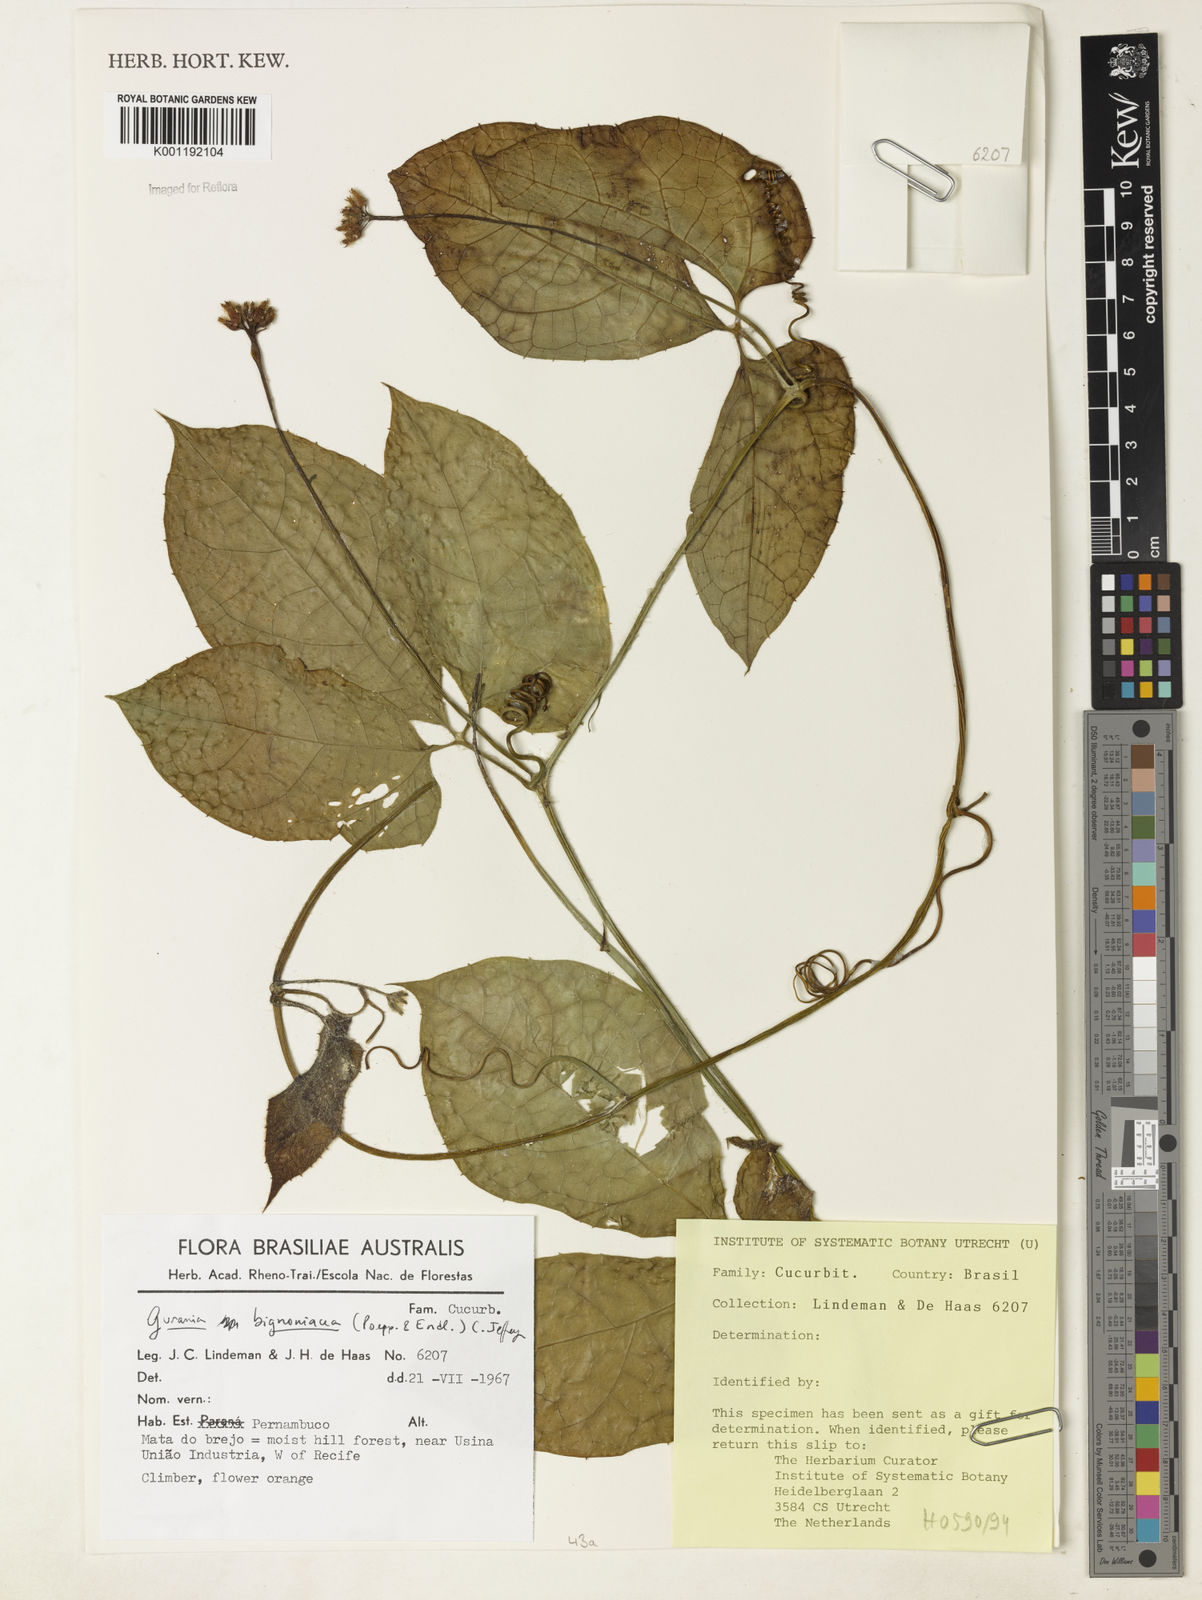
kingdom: Plantae
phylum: Tracheophyta
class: Magnoliopsida
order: Cucurbitales
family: Cucurbitaceae
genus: Gurania
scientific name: Gurania bignoniacea
